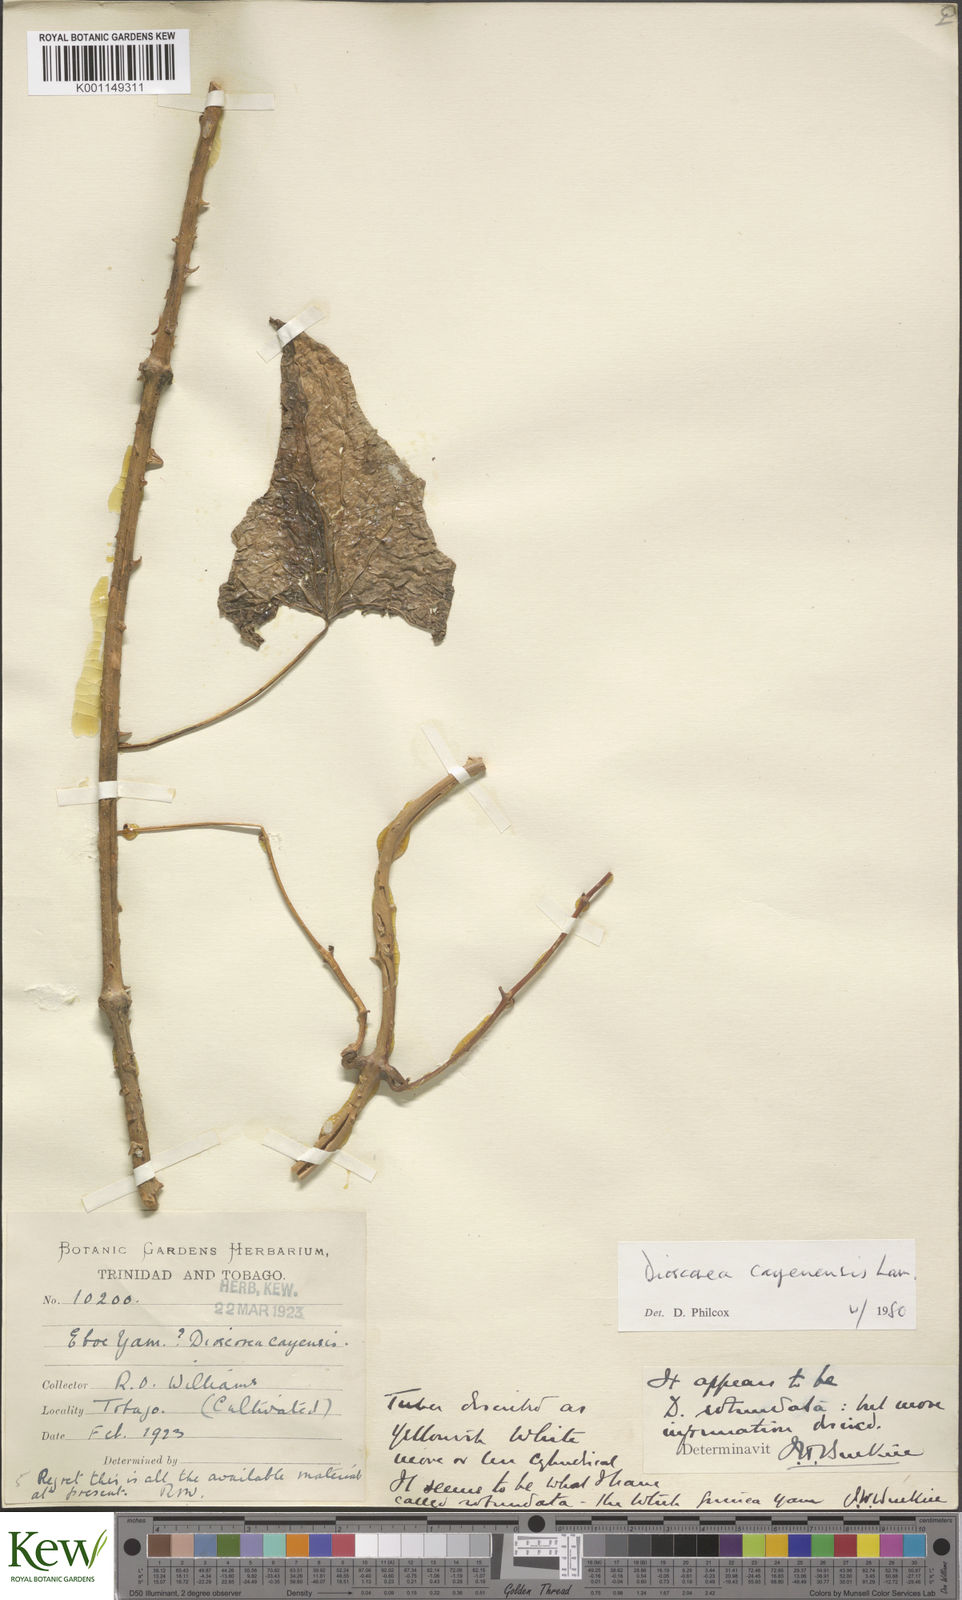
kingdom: Plantae
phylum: Tracheophyta
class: Liliopsida
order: Dioscoreales
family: Dioscoreaceae
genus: Dioscorea
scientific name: Dioscorea cayenensis
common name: Attoto yam
